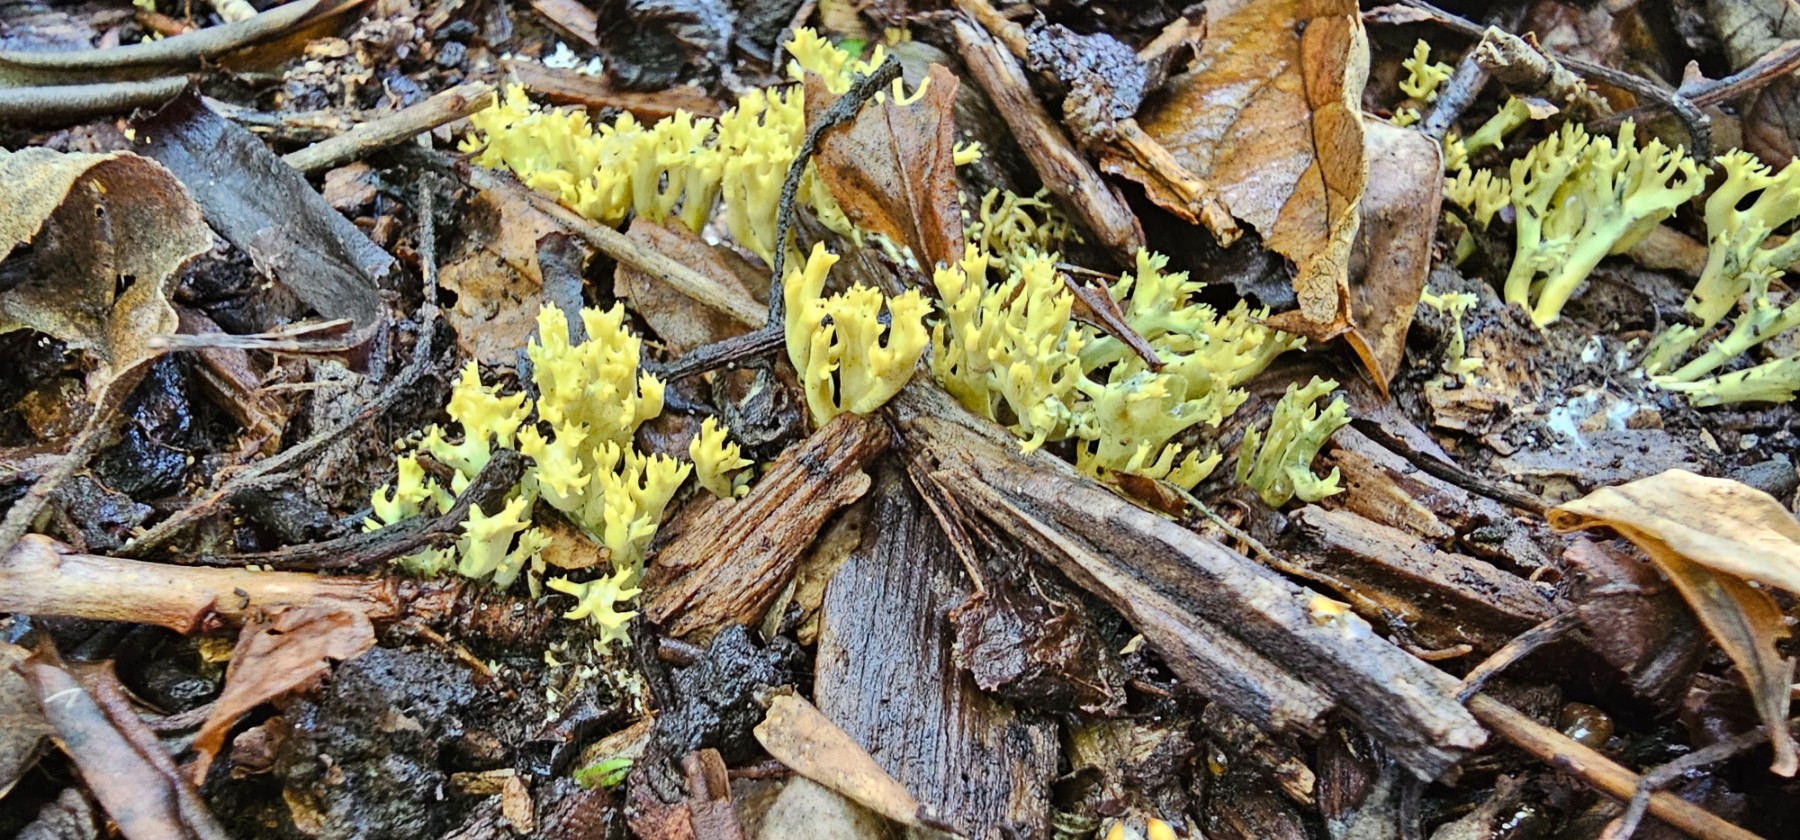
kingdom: Fungi
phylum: Basidiomycota
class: Agaricomycetes
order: Gomphales
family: Gomphaceae
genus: Phaeoclavulina
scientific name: Phaeoclavulina abietina
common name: gulgrøn koralsvamp
